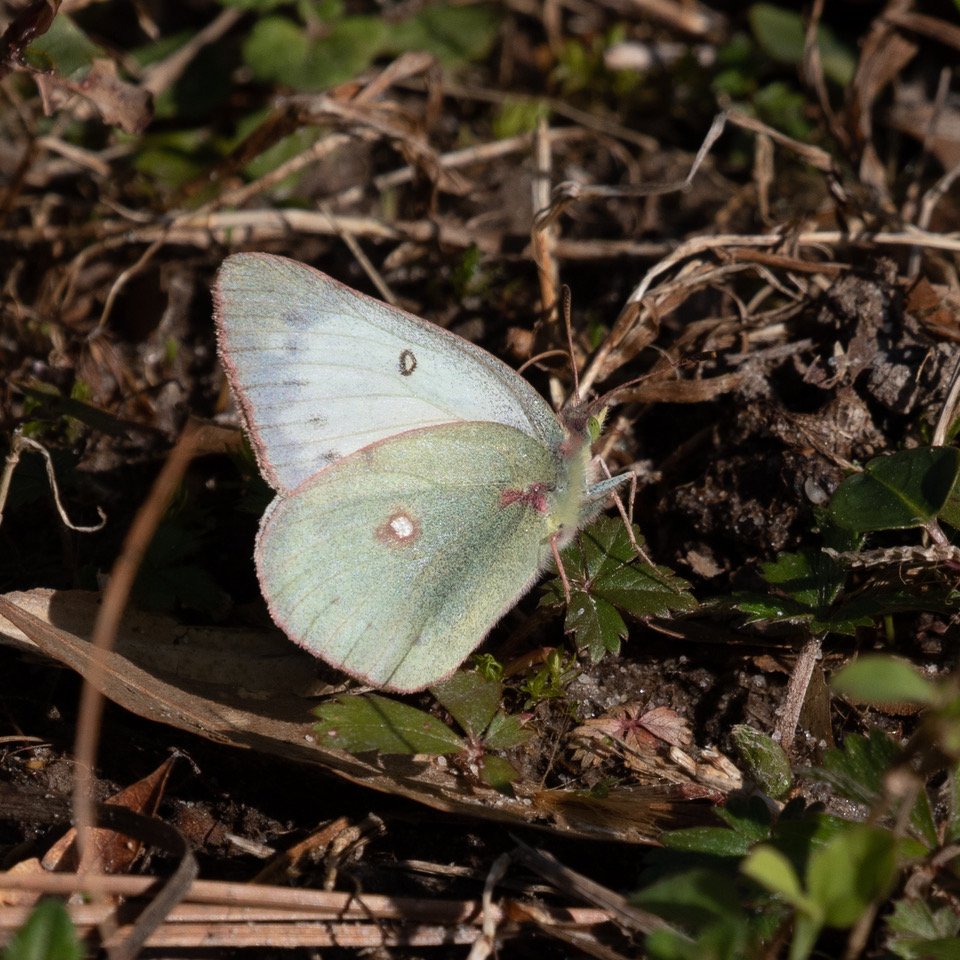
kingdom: Animalia
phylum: Arthropoda
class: Insecta
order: Lepidoptera
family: Pieridae
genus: Colias
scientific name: Colias
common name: Clouded Yellows
